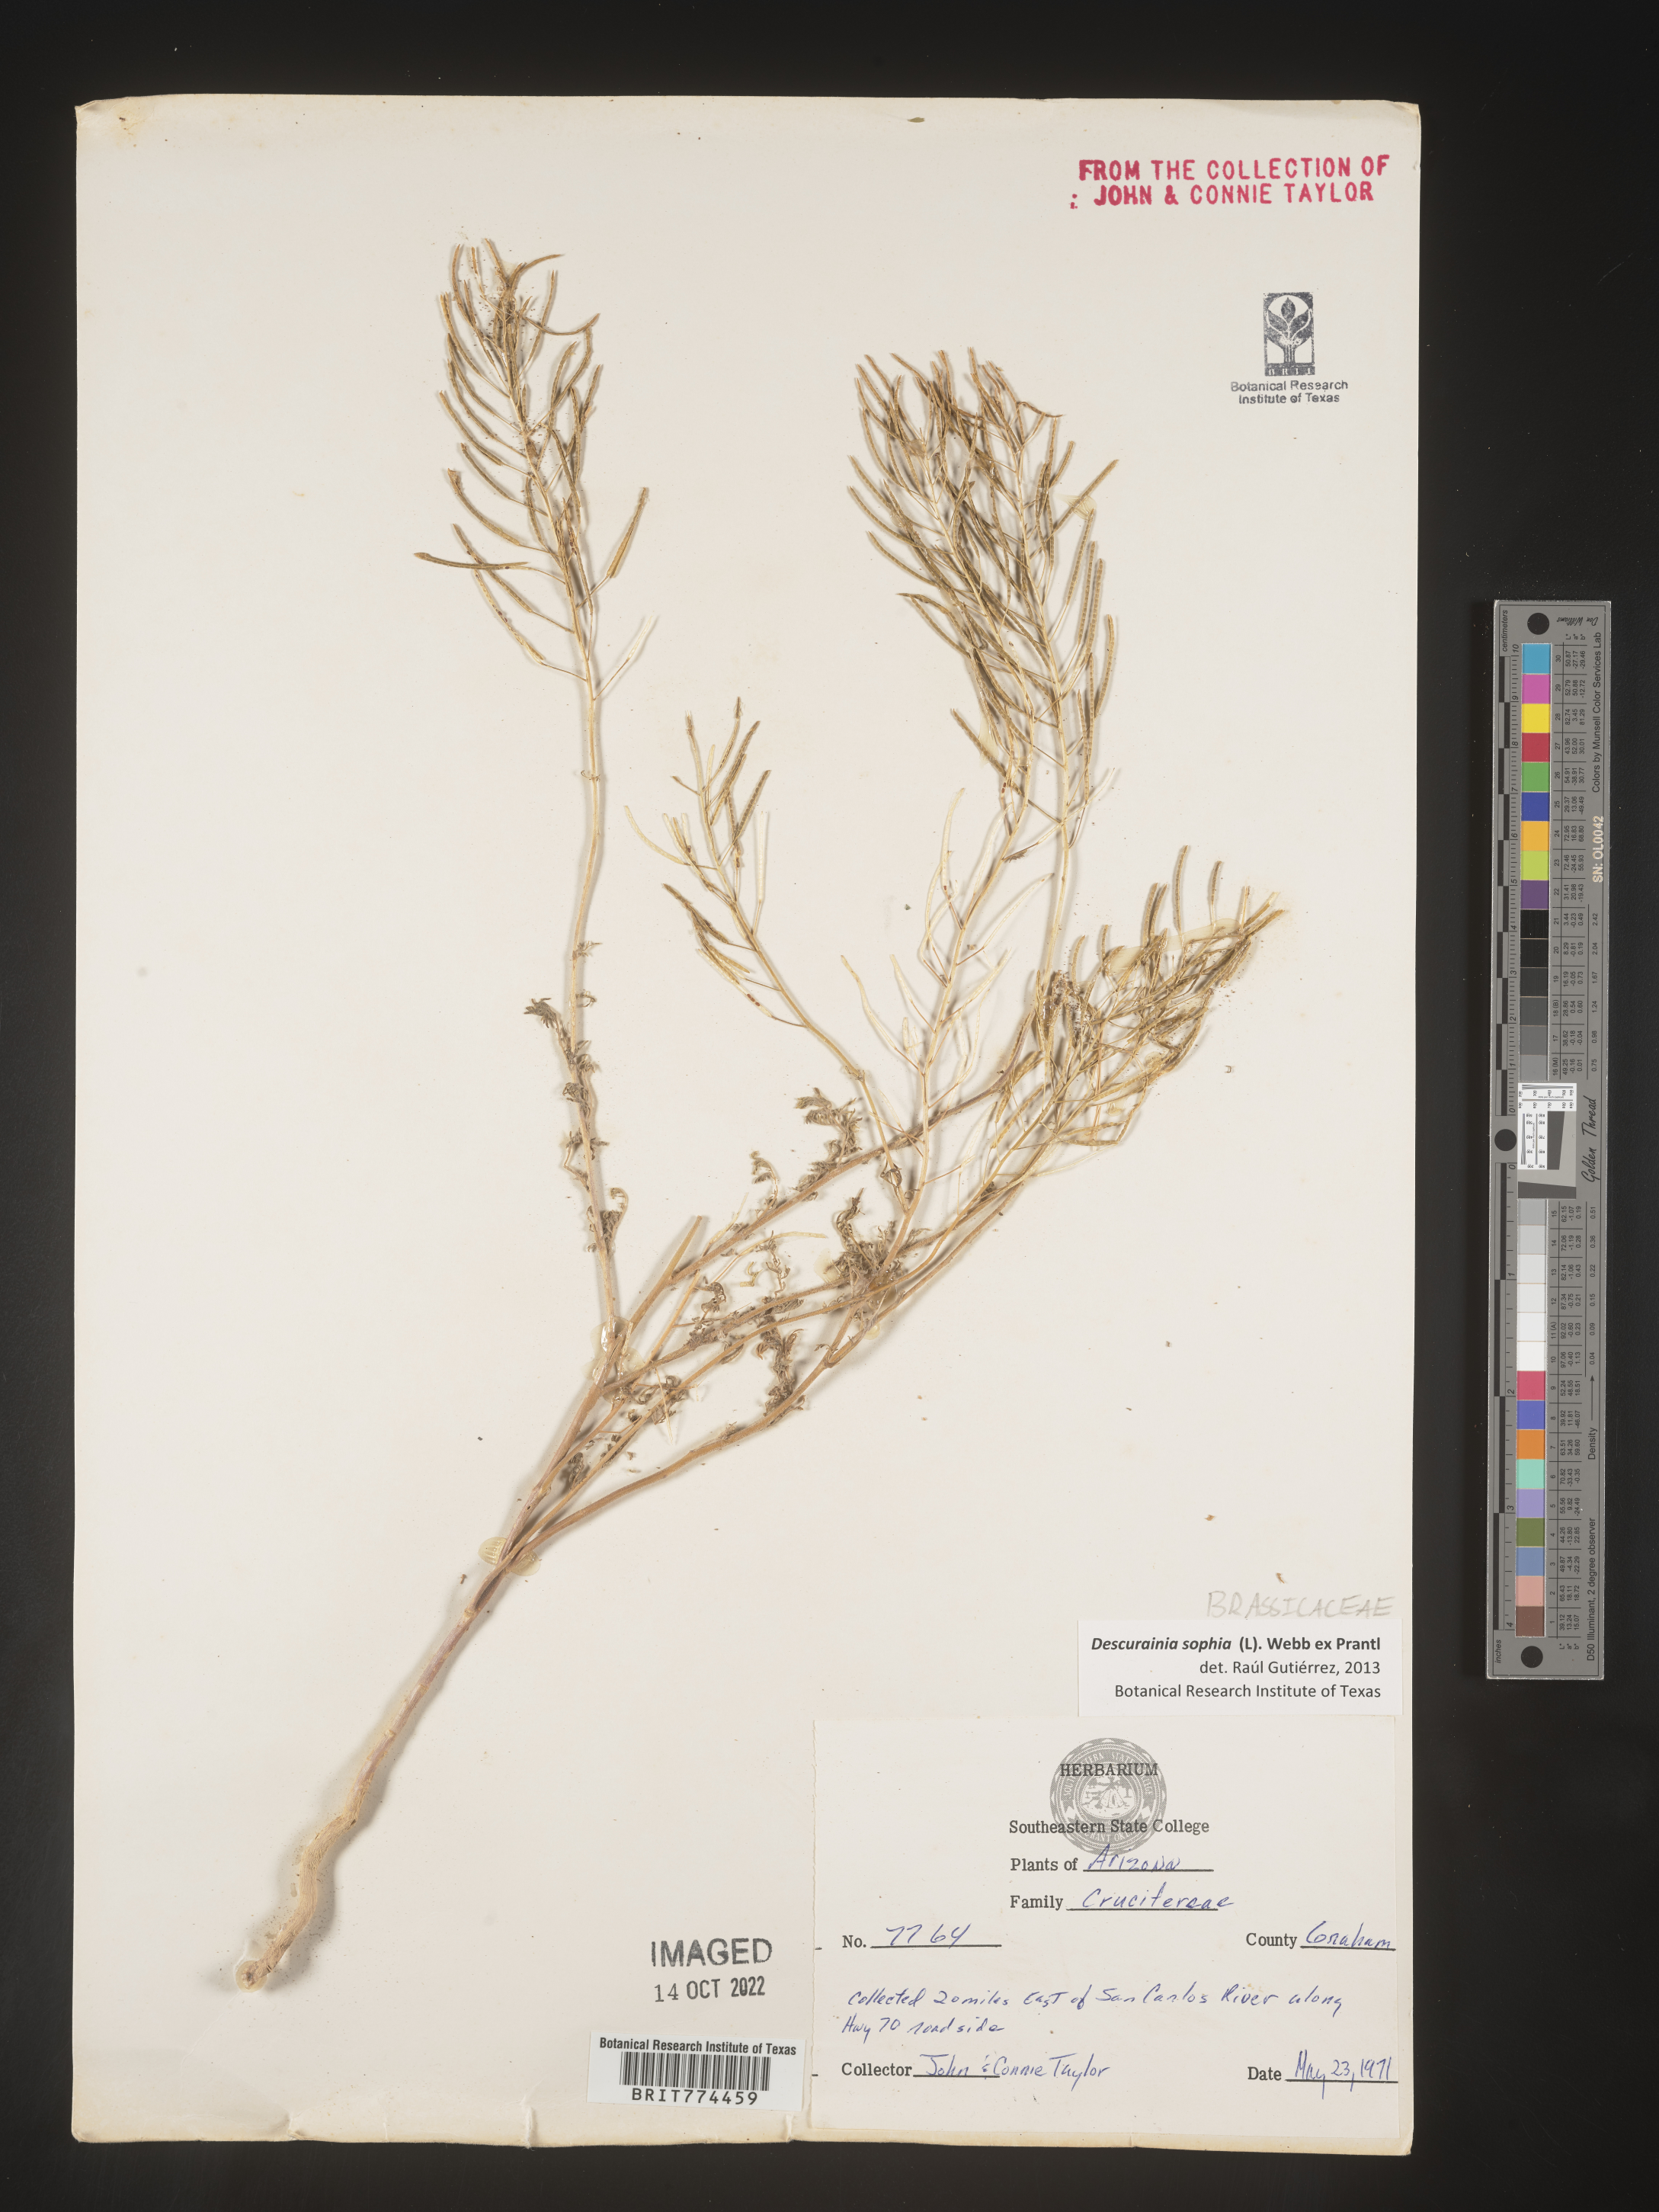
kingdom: Plantae
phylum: Tracheophyta
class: Magnoliopsida
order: Brassicales
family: Brassicaceae
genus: Descurainia
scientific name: Descurainia sophia
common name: Flixweed
